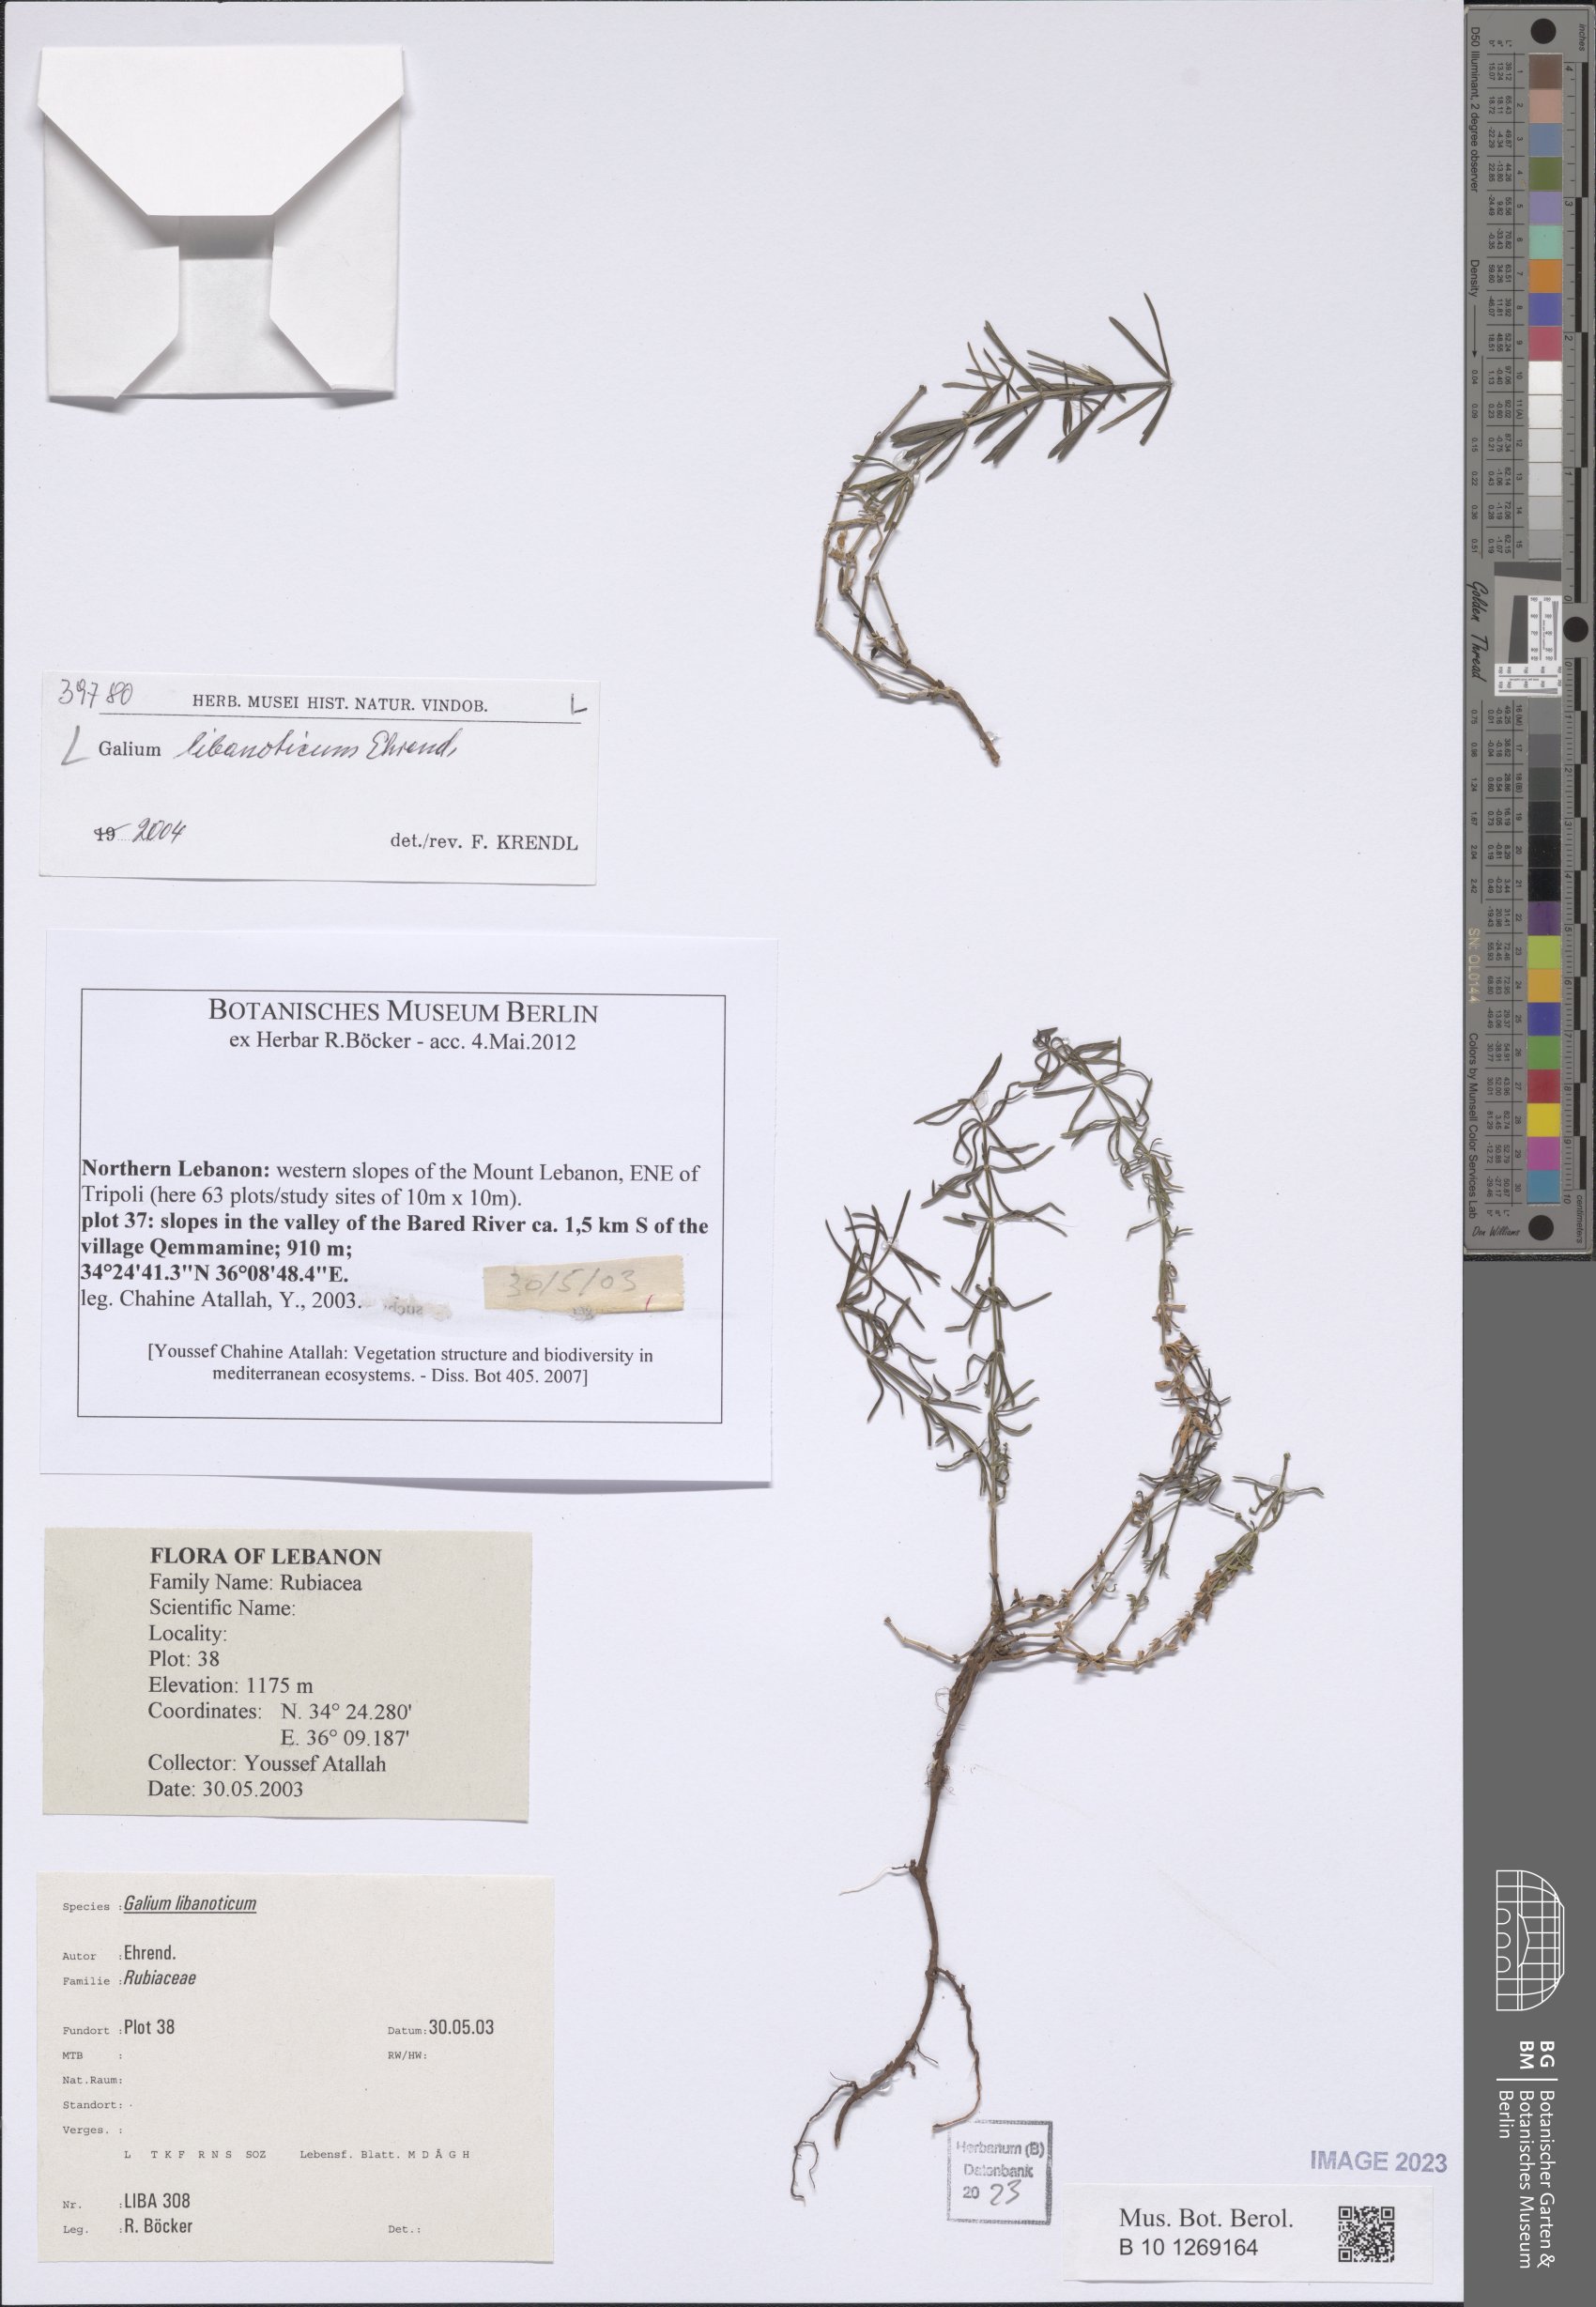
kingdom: Plantae
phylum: Tracheophyta
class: Magnoliopsida
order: Gentianales
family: Rubiaceae
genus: Galium
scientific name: Galium libanoticum
